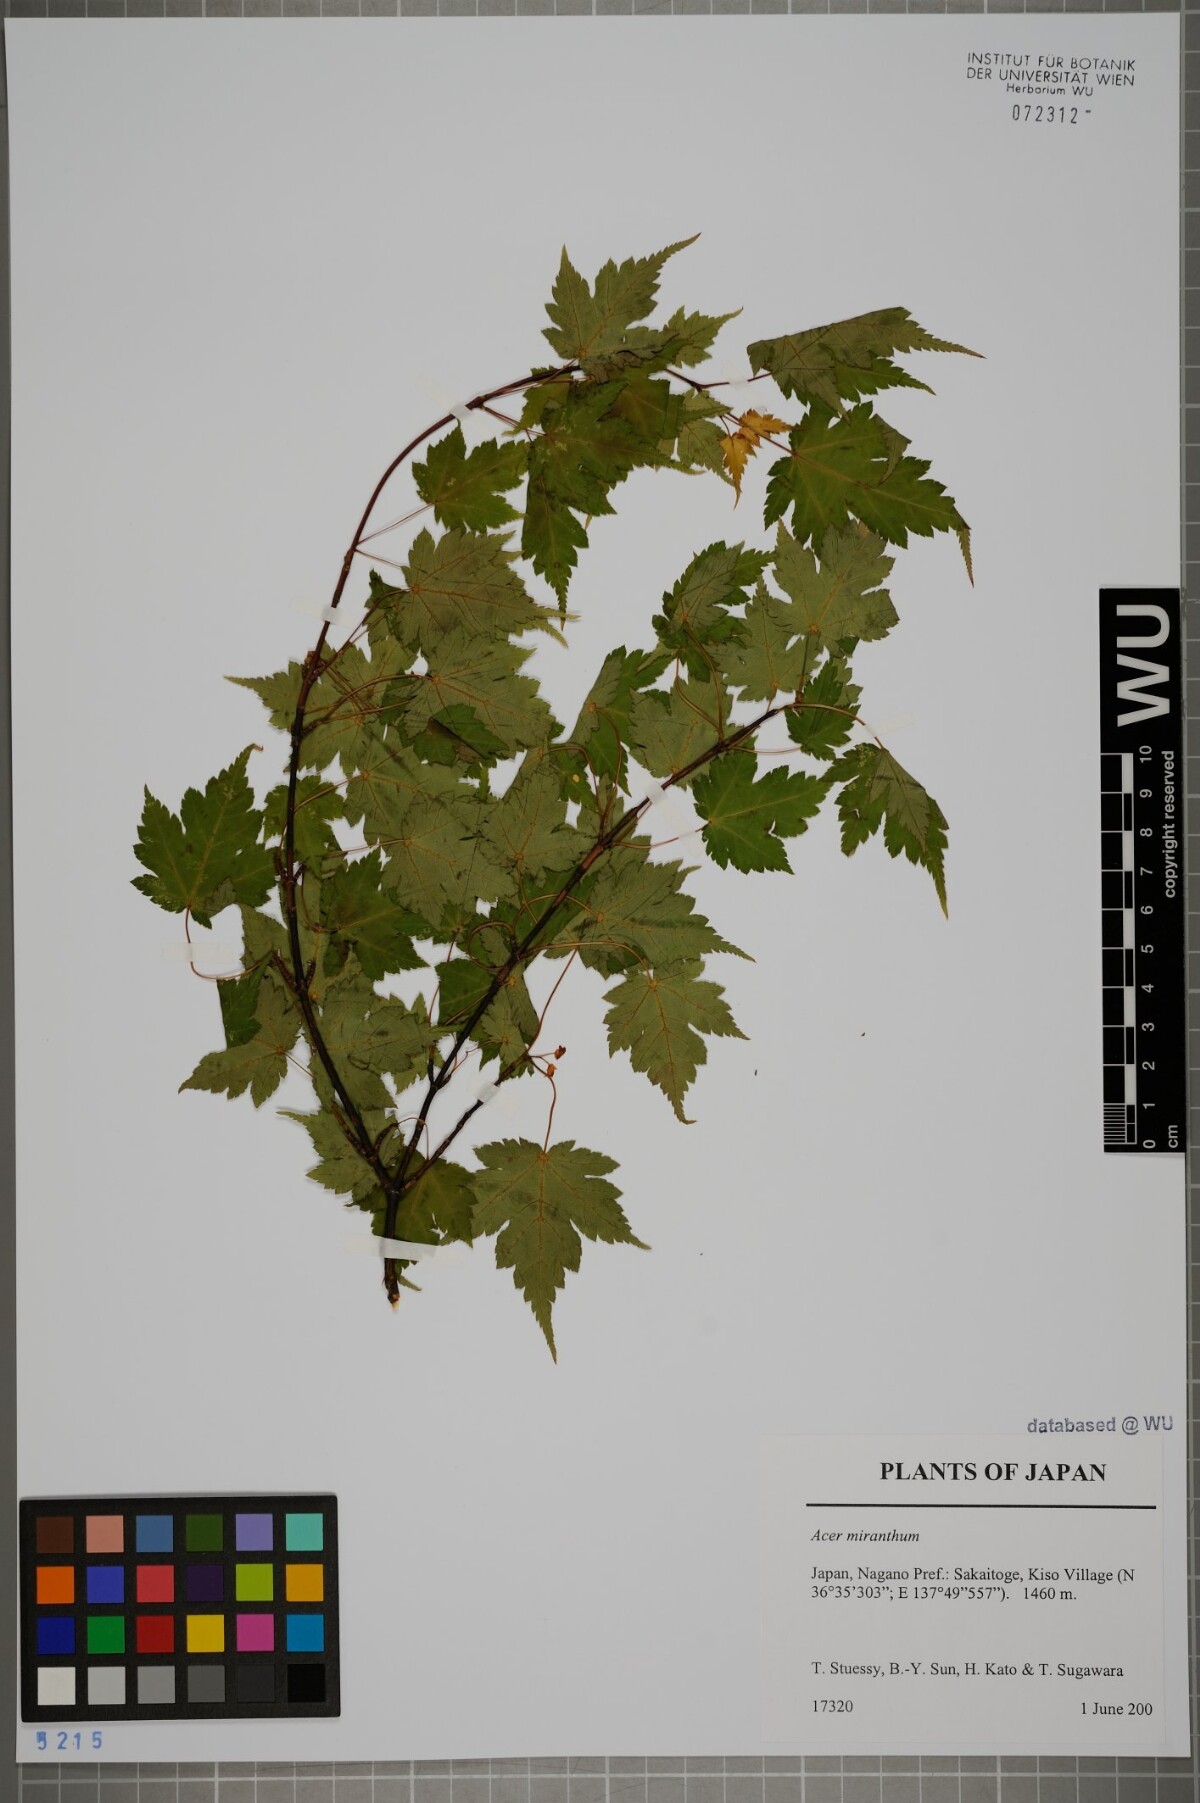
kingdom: Plantae
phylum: Tracheophyta
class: Magnoliopsida
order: Sapindales
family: Sapindaceae
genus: Acer
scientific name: Acer micranthum
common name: Komine maple
